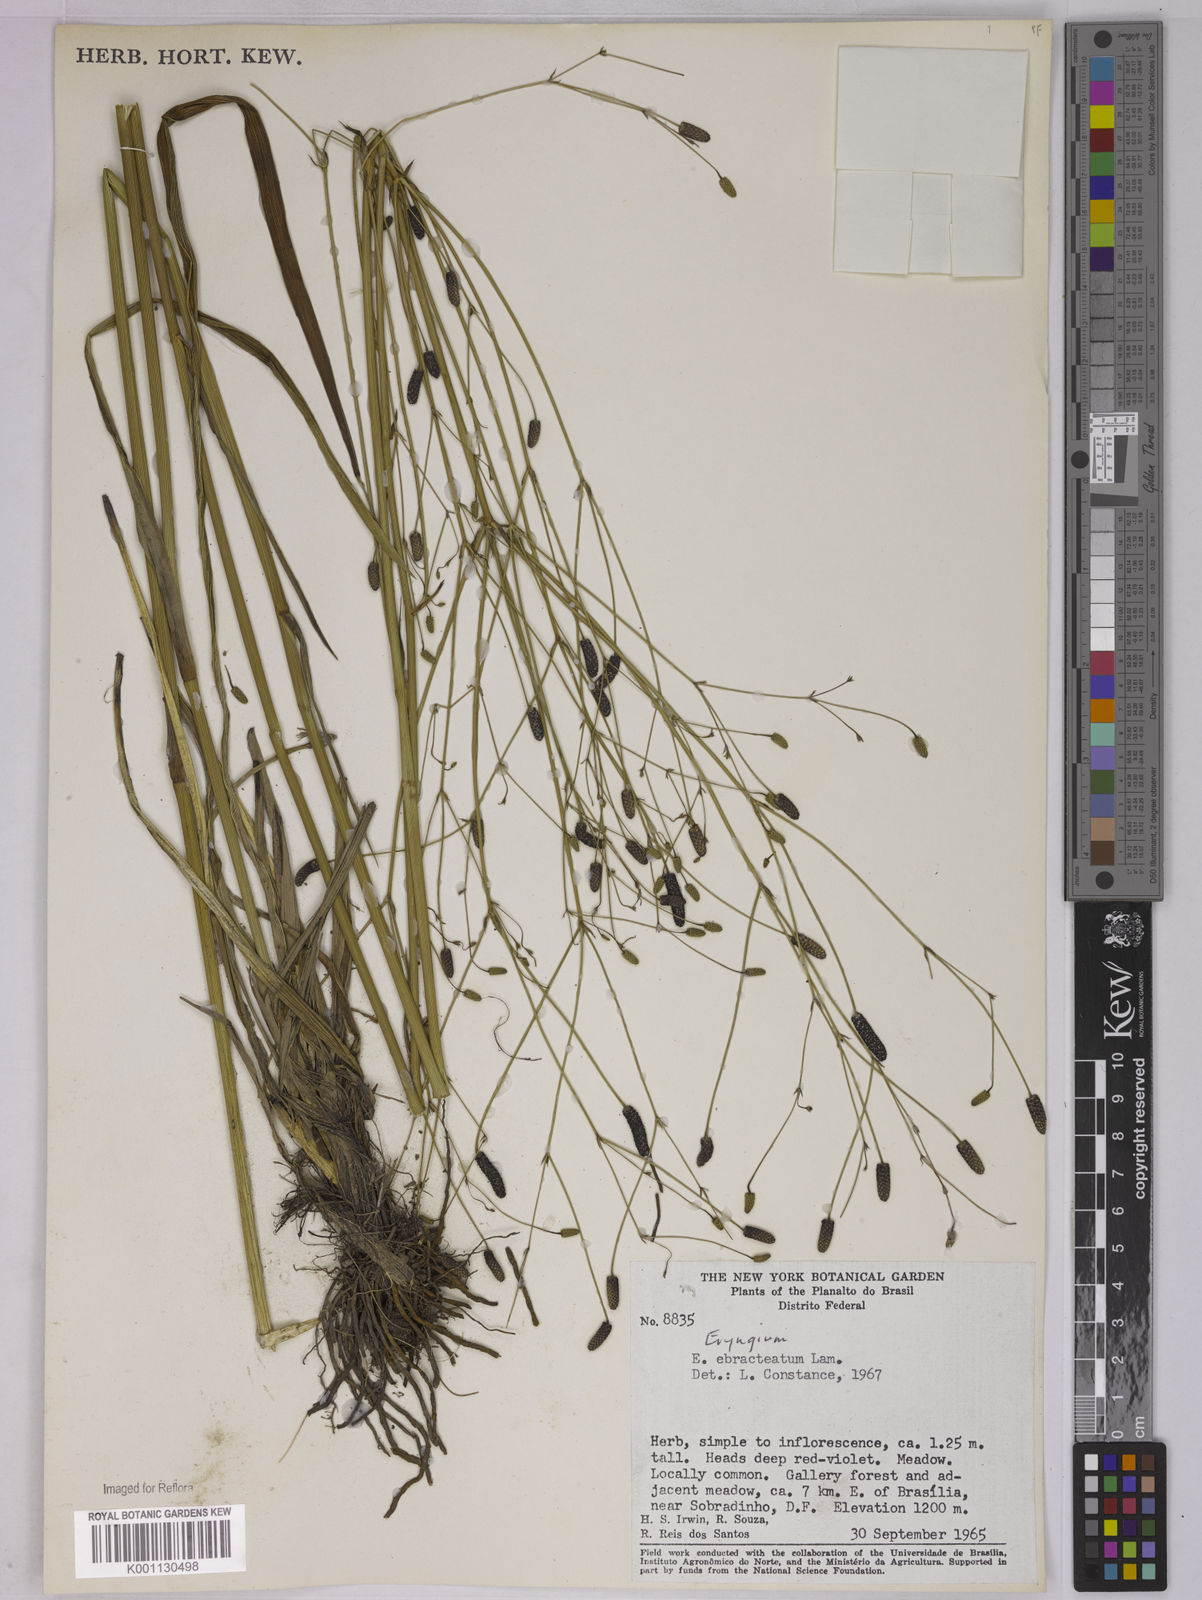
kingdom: Plantae
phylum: Tracheophyta
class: Magnoliopsida
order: Apiales
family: Apiaceae
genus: Eryngium
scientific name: Eryngium ebracteatum
